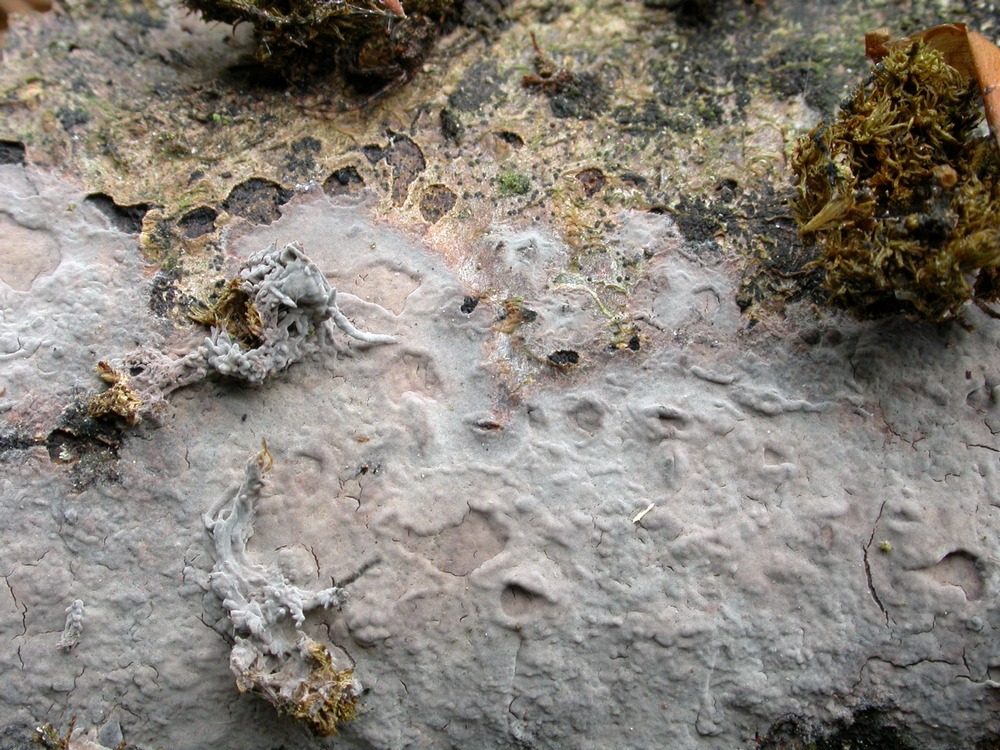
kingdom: Fungi
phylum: Basidiomycota
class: Agaricomycetes
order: Hymenochaetales
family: Schizoporaceae
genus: Schizopora
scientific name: Schizopora paradoxa
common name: hvid tandsvamp
